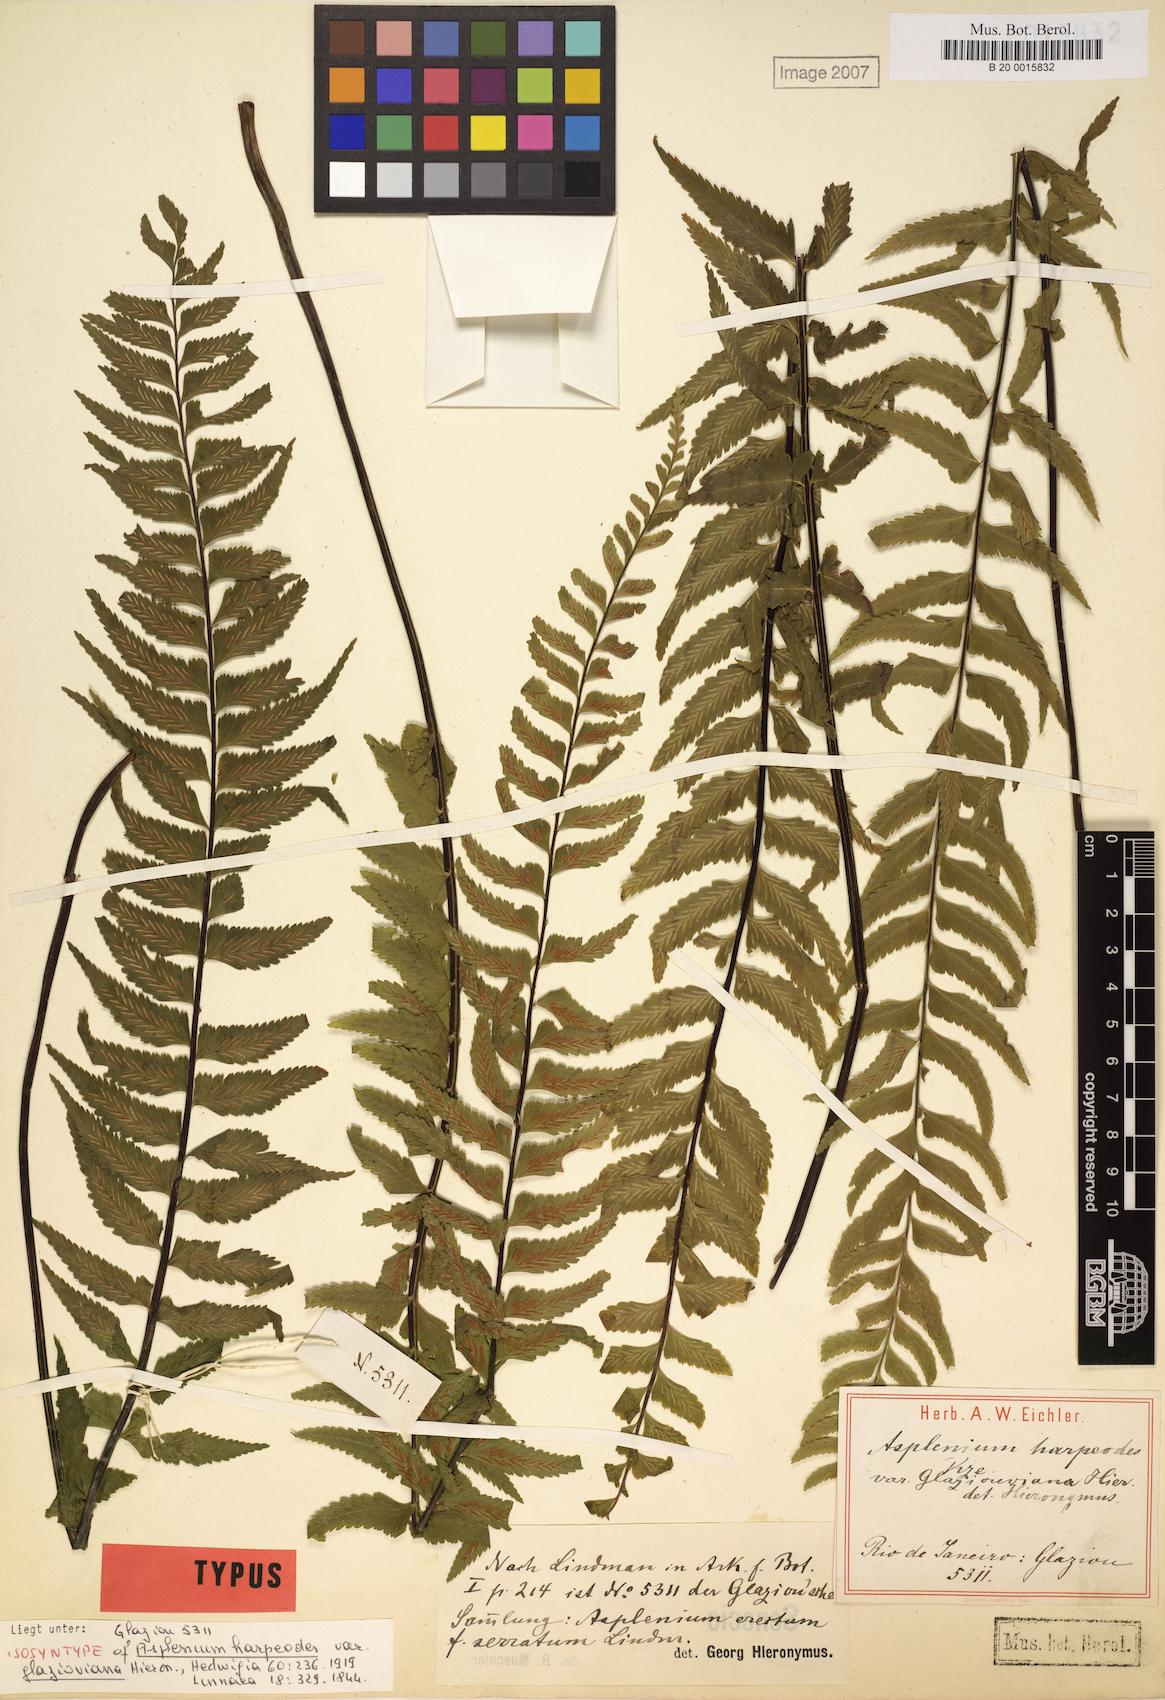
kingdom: Plantae
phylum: Tracheophyta
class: Polypodiopsida
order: Polypodiales
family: Aspleniaceae
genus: Asplenium
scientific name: Asplenium harpeodes
